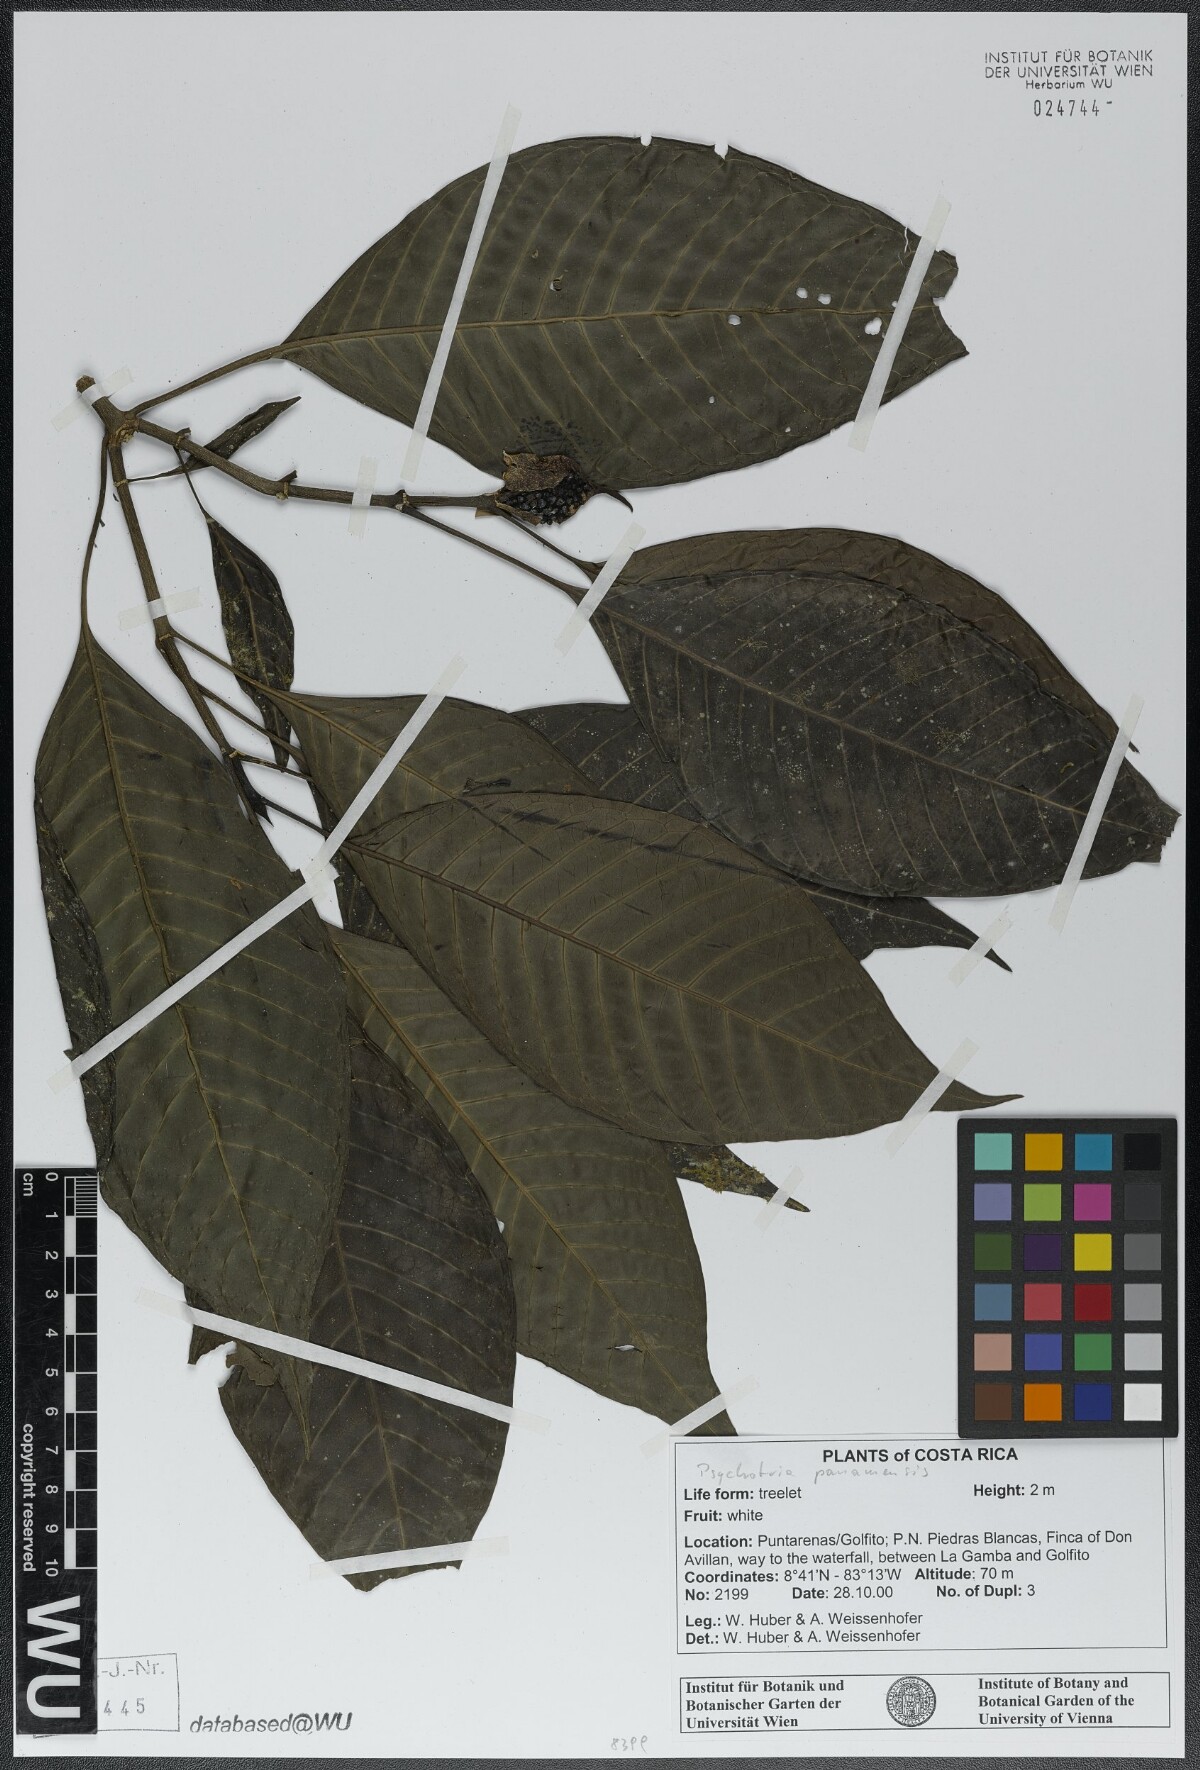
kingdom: Plantae
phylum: Tracheophyta
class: Magnoliopsida
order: Gentianales
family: Rubiaceae
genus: Psychotria
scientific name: Psychotria panamensis
